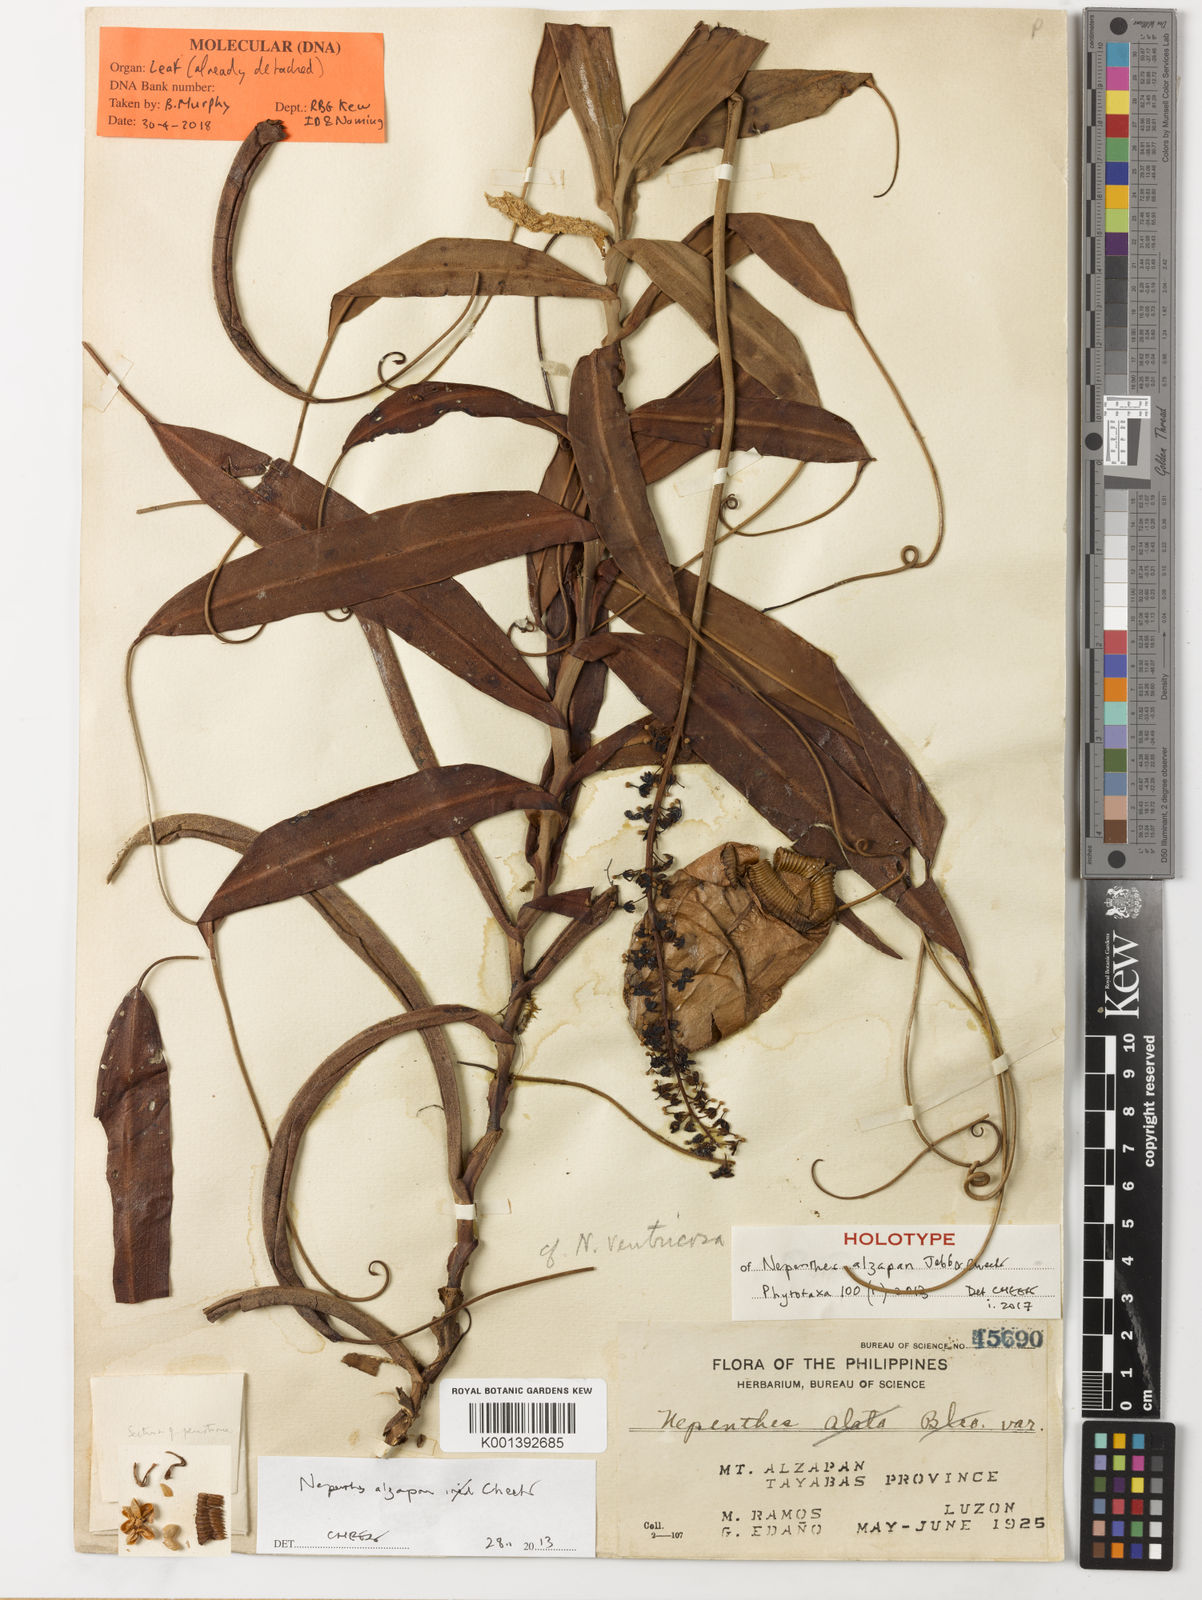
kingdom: Plantae
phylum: Tracheophyta
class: Magnoliopsida
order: Caryophyllales
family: Nepenthaceae
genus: Nepenthes
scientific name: Nepenthes alzapan
